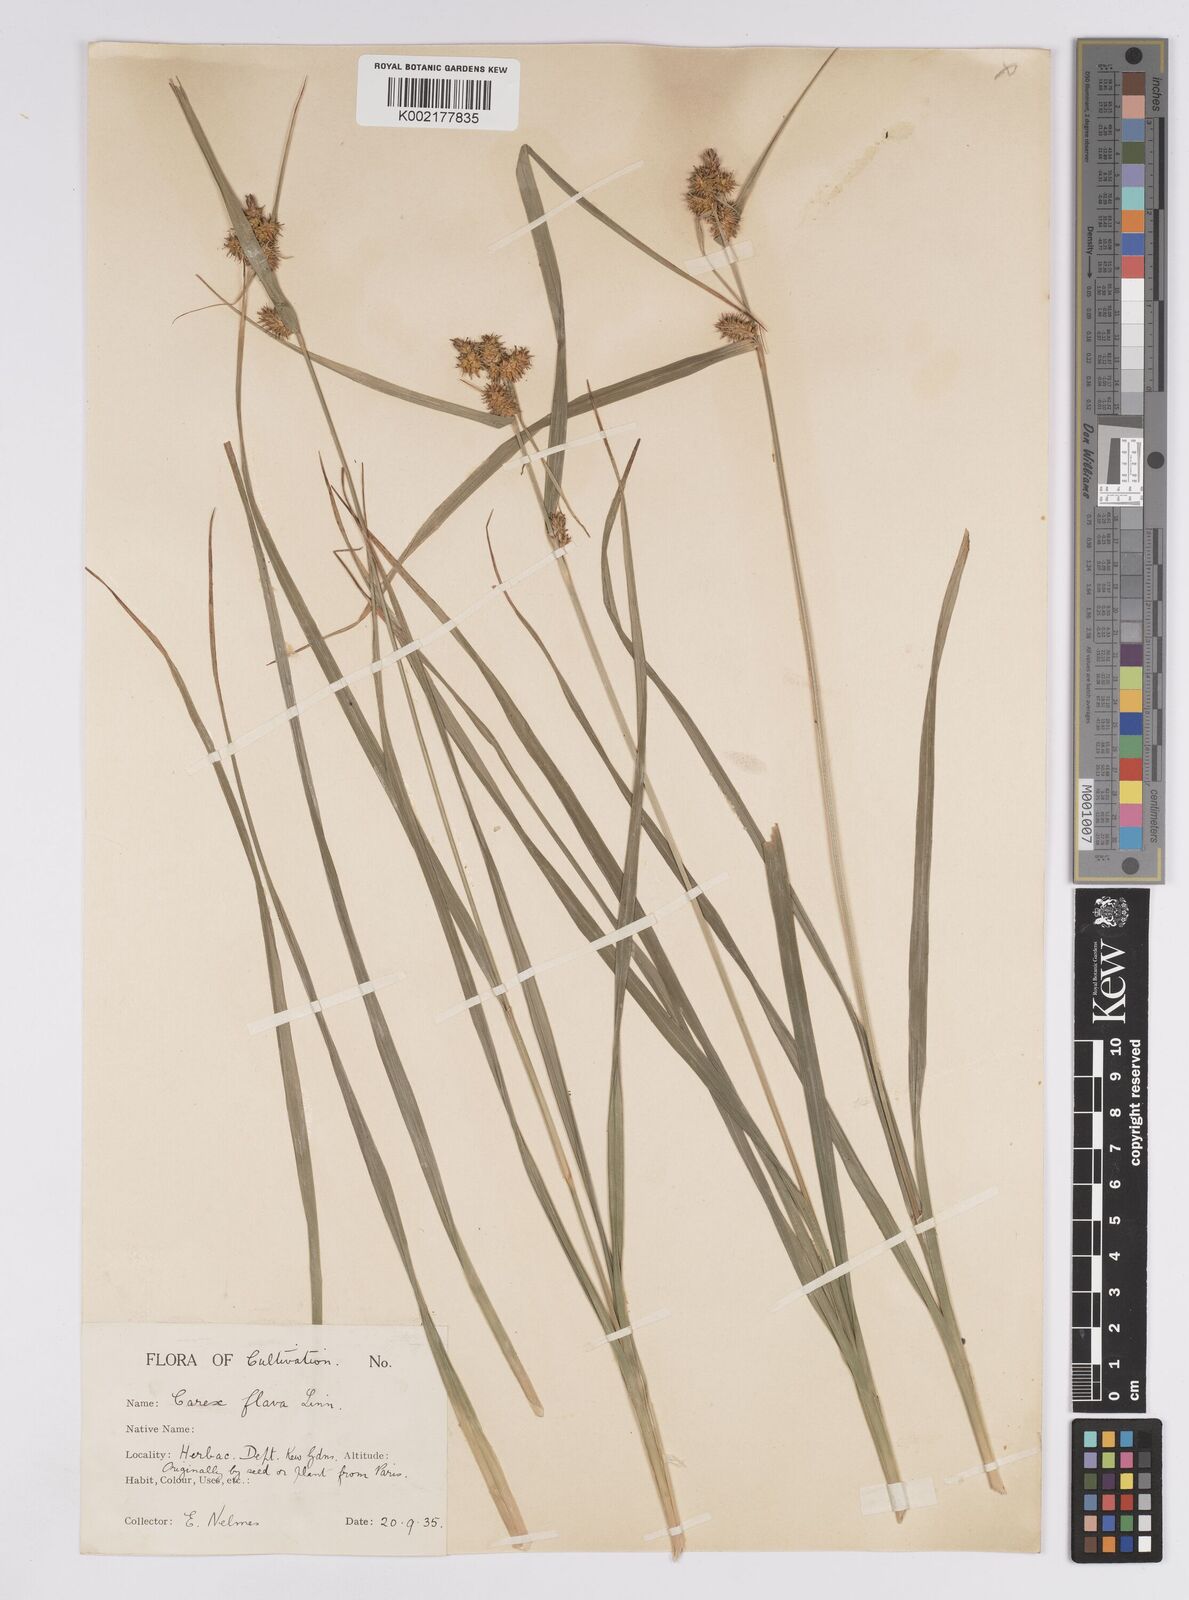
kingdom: Plantae
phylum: Tracheophyta
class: Liliopsida
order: Poales
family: Cyperaceae
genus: Carex
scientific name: Carex flava
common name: Large yellow-sedge
